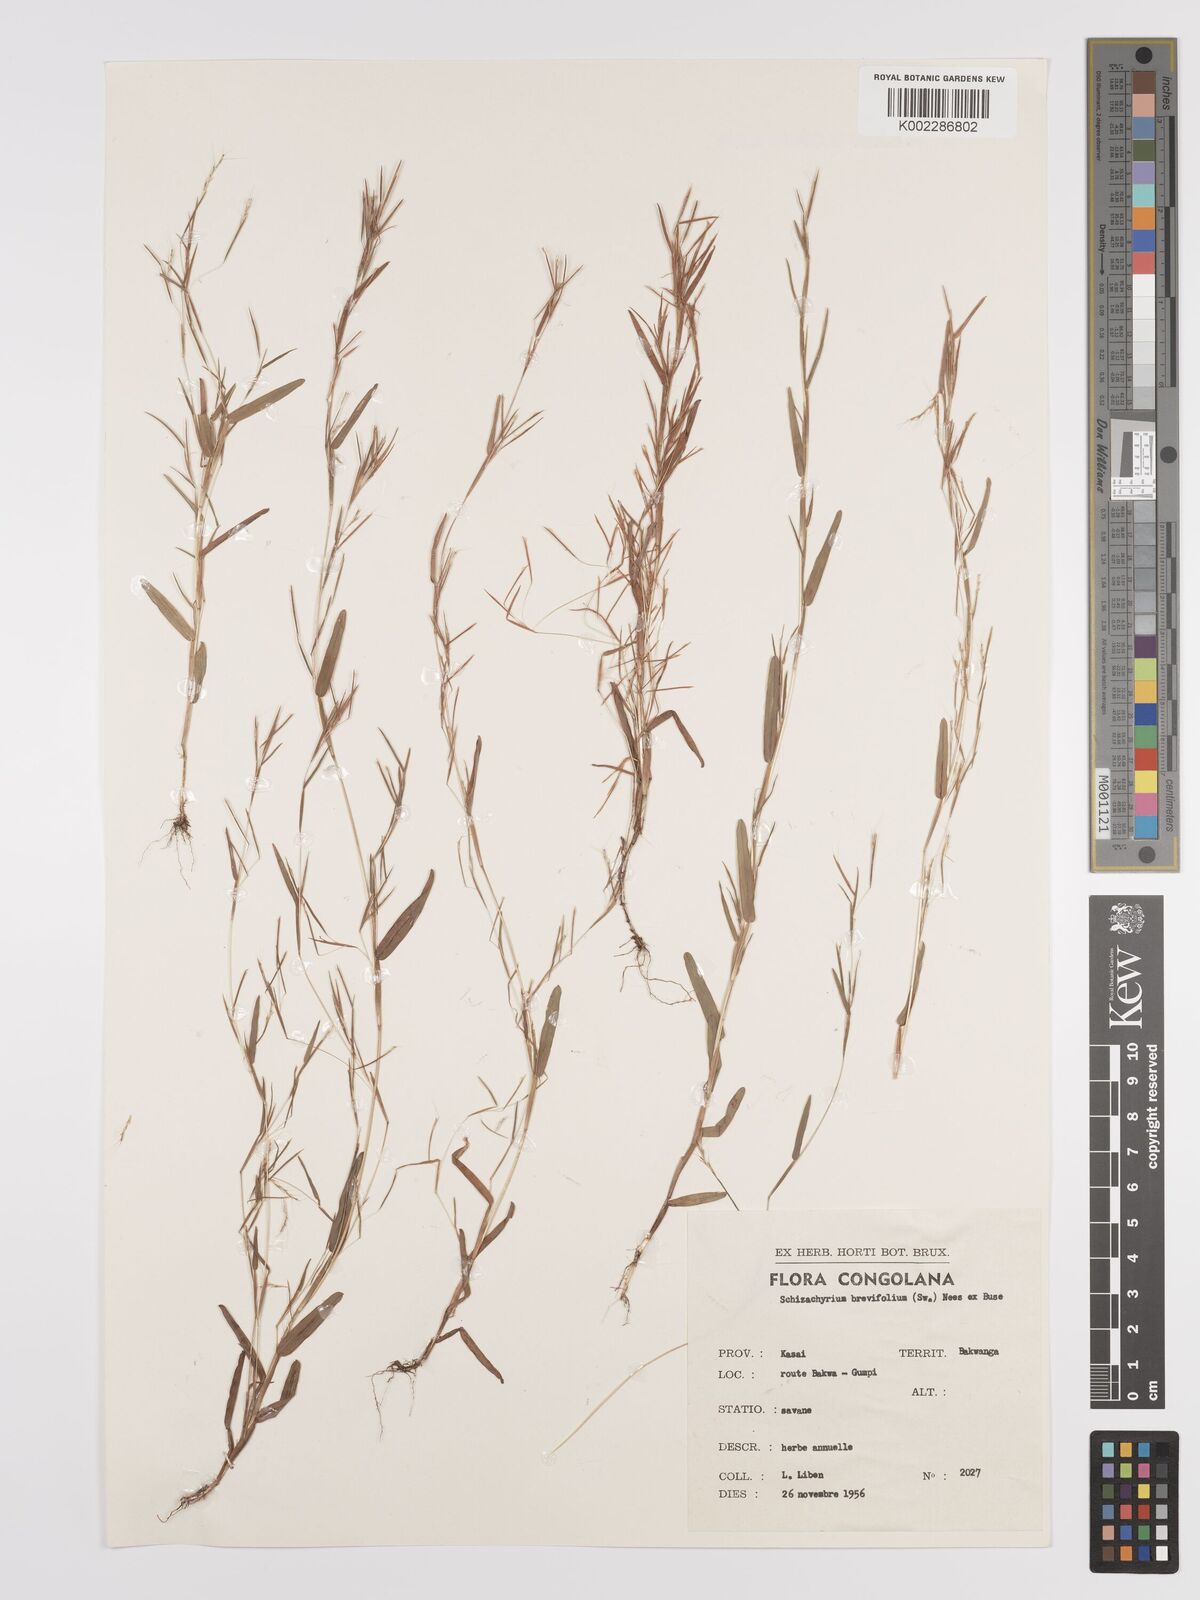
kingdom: Plantae
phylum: Tracheophyta
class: Liliopsida
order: Poales
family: Poaceae
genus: Schizachyrium
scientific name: Schizachyrium brevifolium
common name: Serillo dulce
